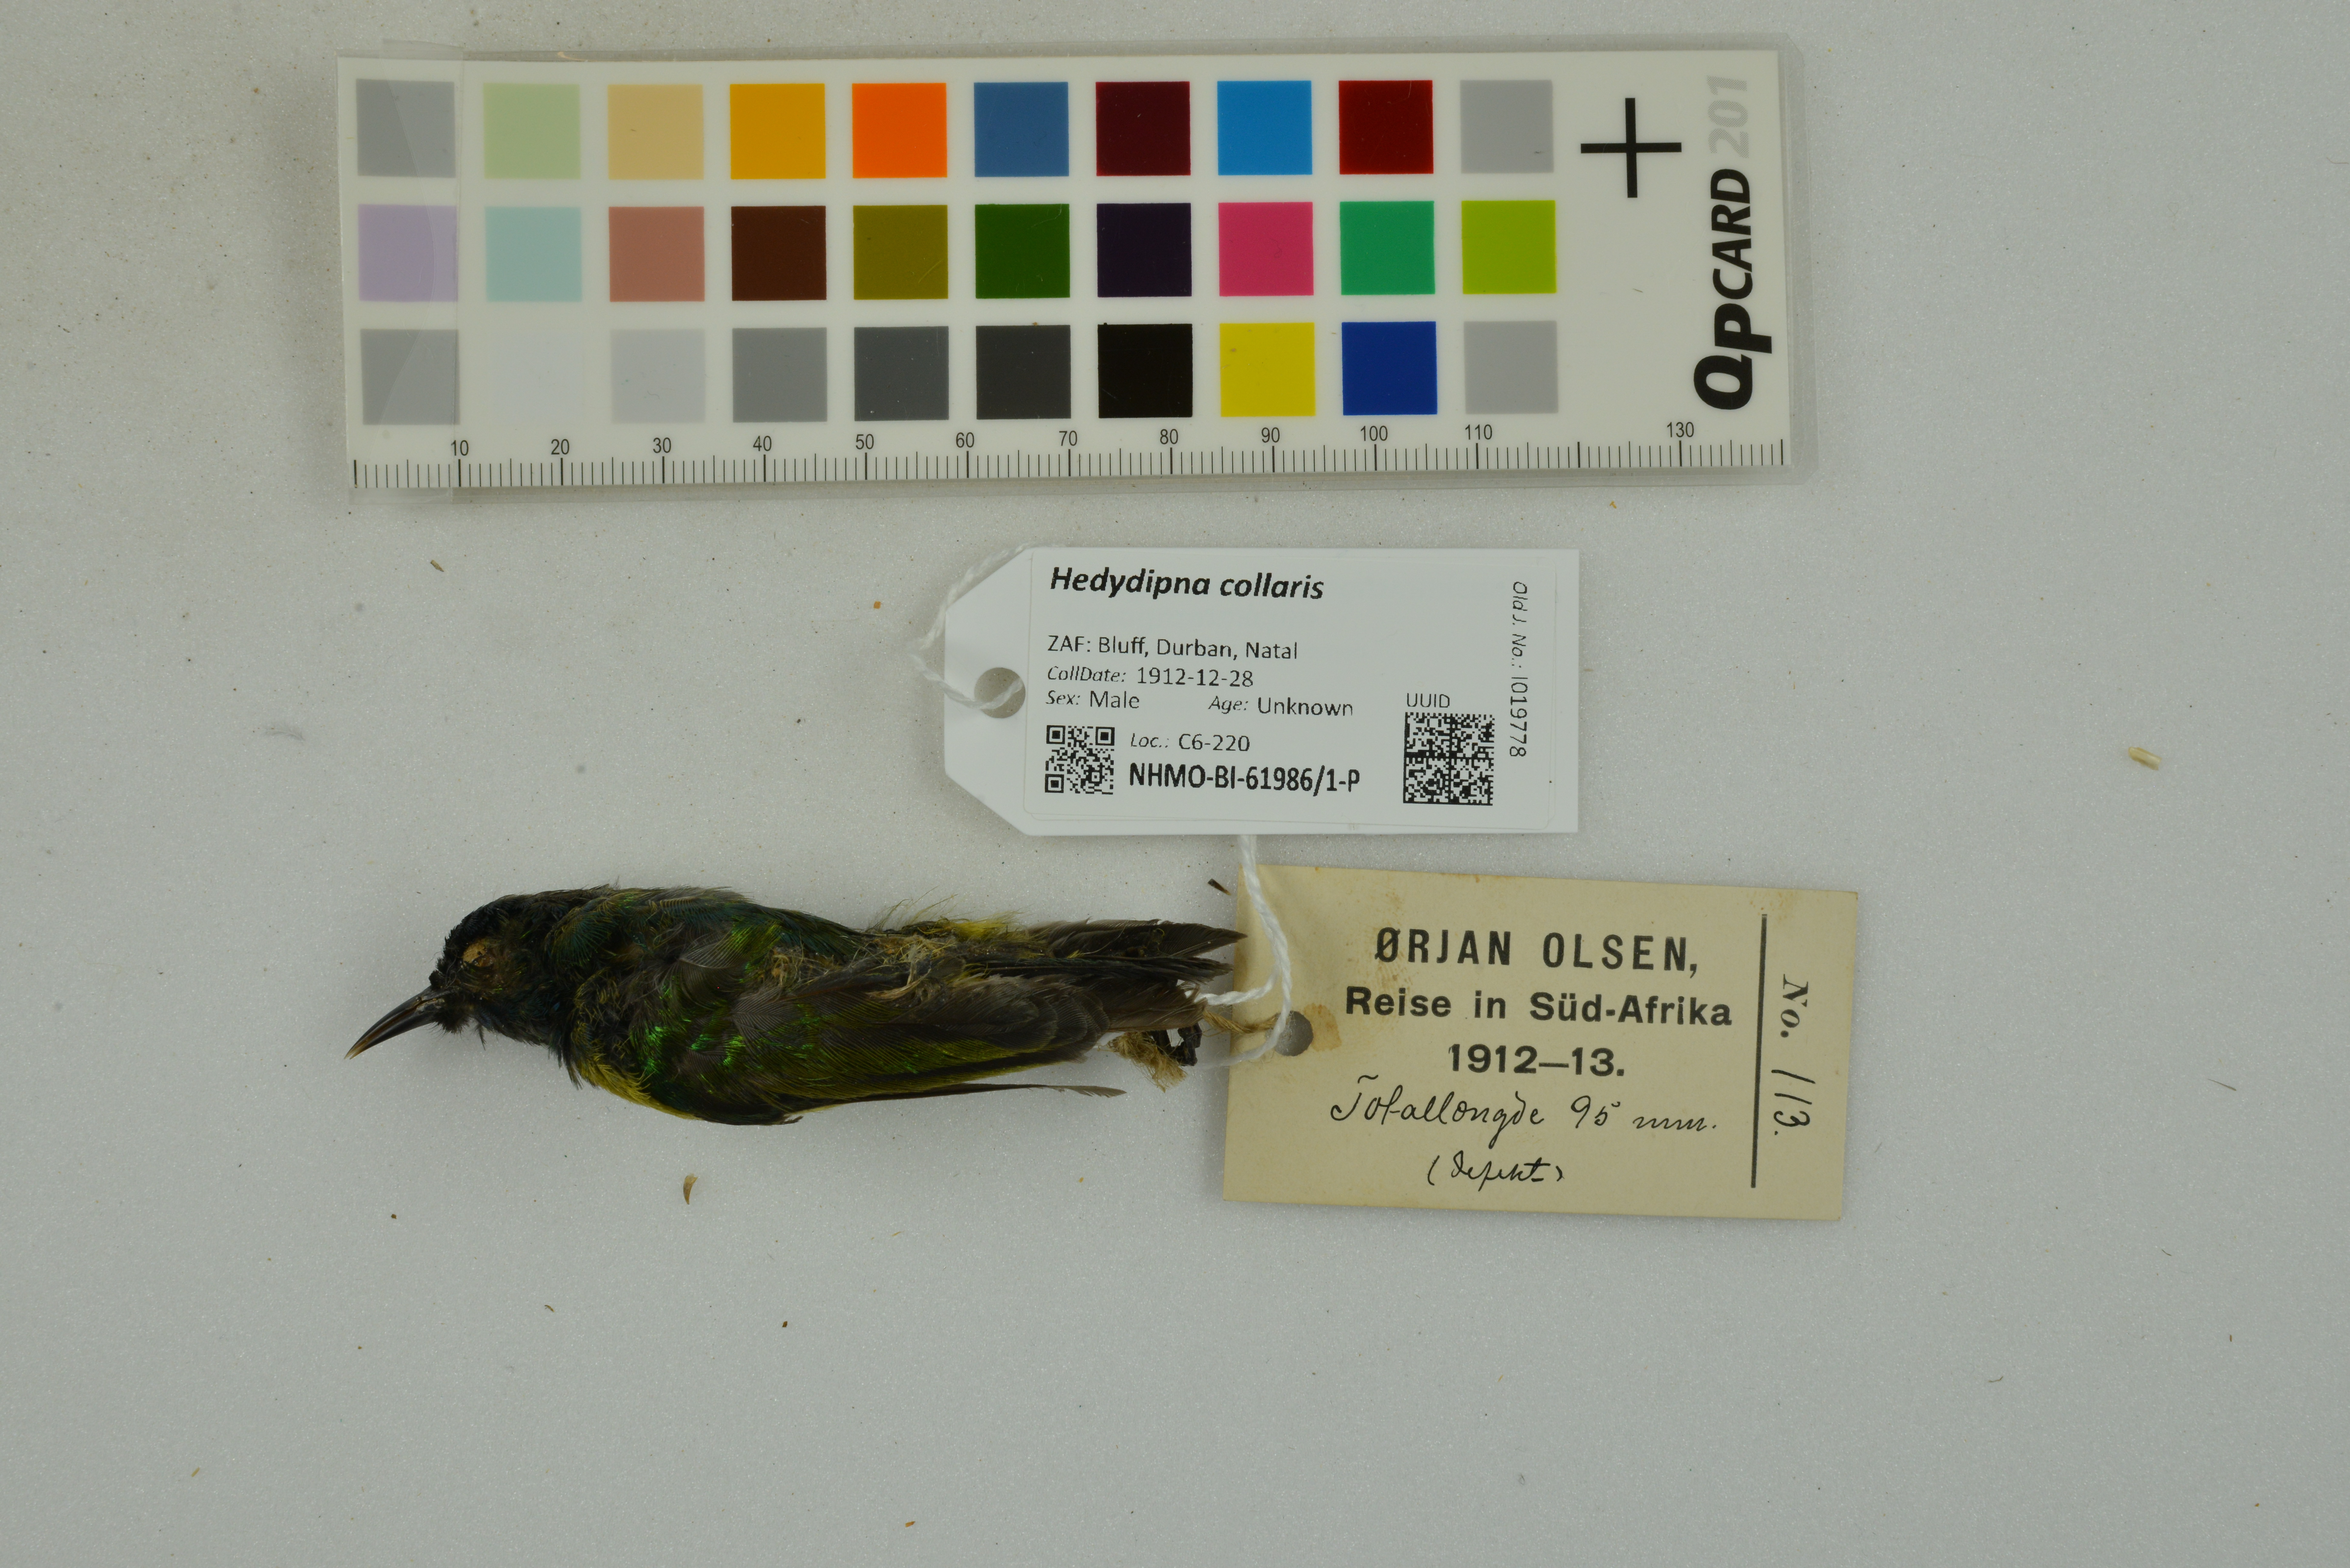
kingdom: Animalia
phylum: Chordata
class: Aves
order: Passeriformes
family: Nectariniidae
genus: Hedydipna
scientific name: Hedydipna collaris
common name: Collared sunbird
